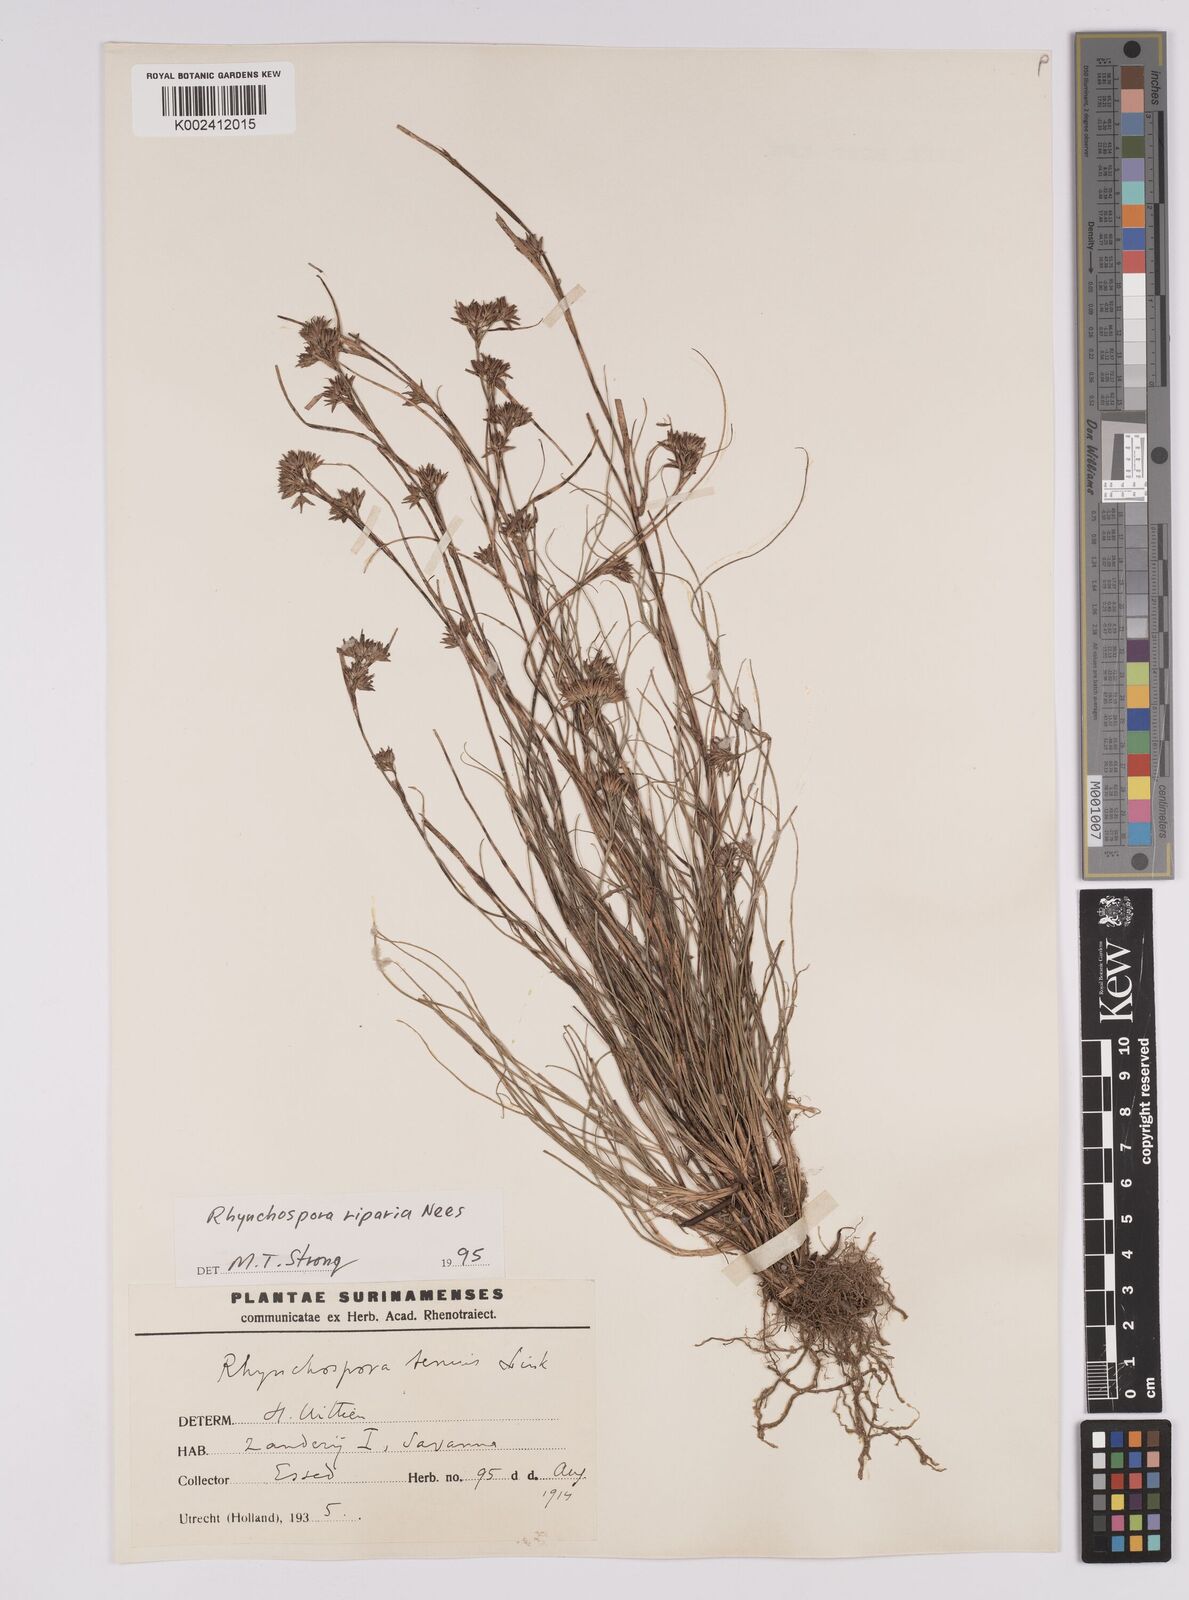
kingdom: Plantae
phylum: Tracheophyta
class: Liliopsida
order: Poales
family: Cyperaceae
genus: Rhynchospora
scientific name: Rhynchospora riparia
